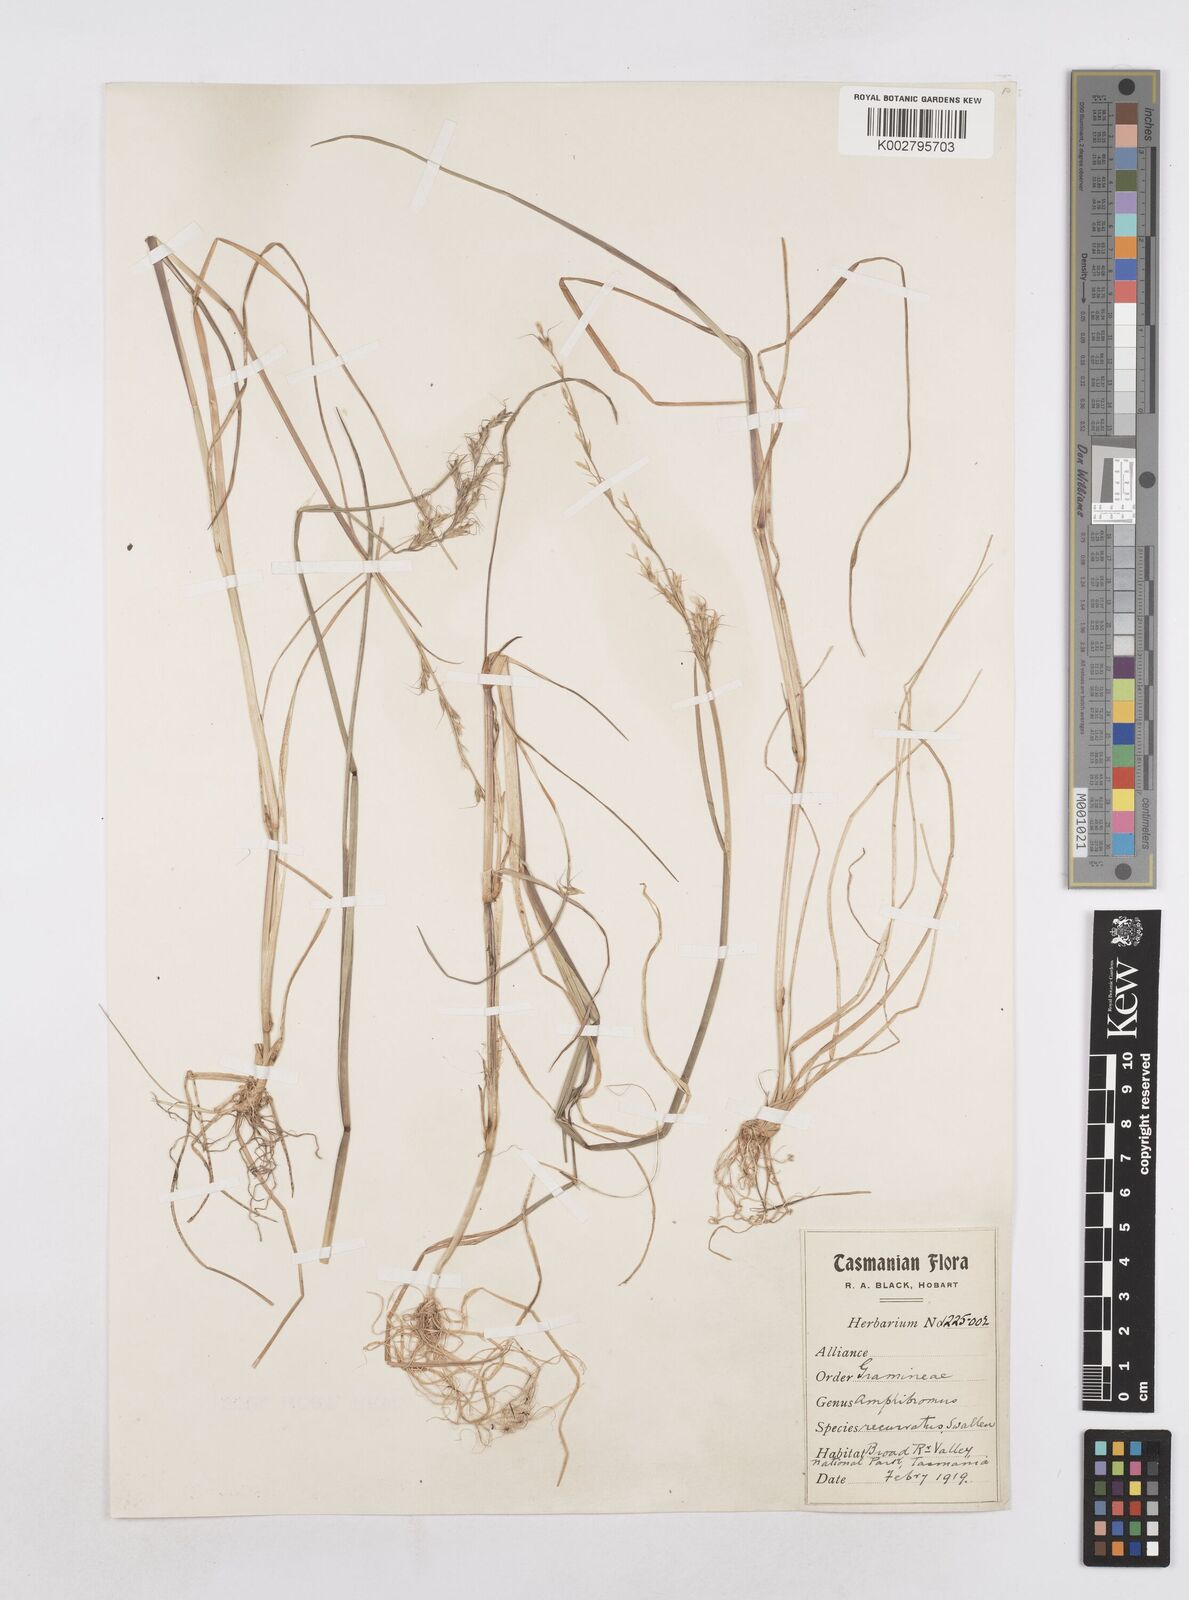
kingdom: Plantae
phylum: Tracheophyta
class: Liliopsida
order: Poales
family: Poaceae
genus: Amphibromus
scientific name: Amphibromus recurvatus
